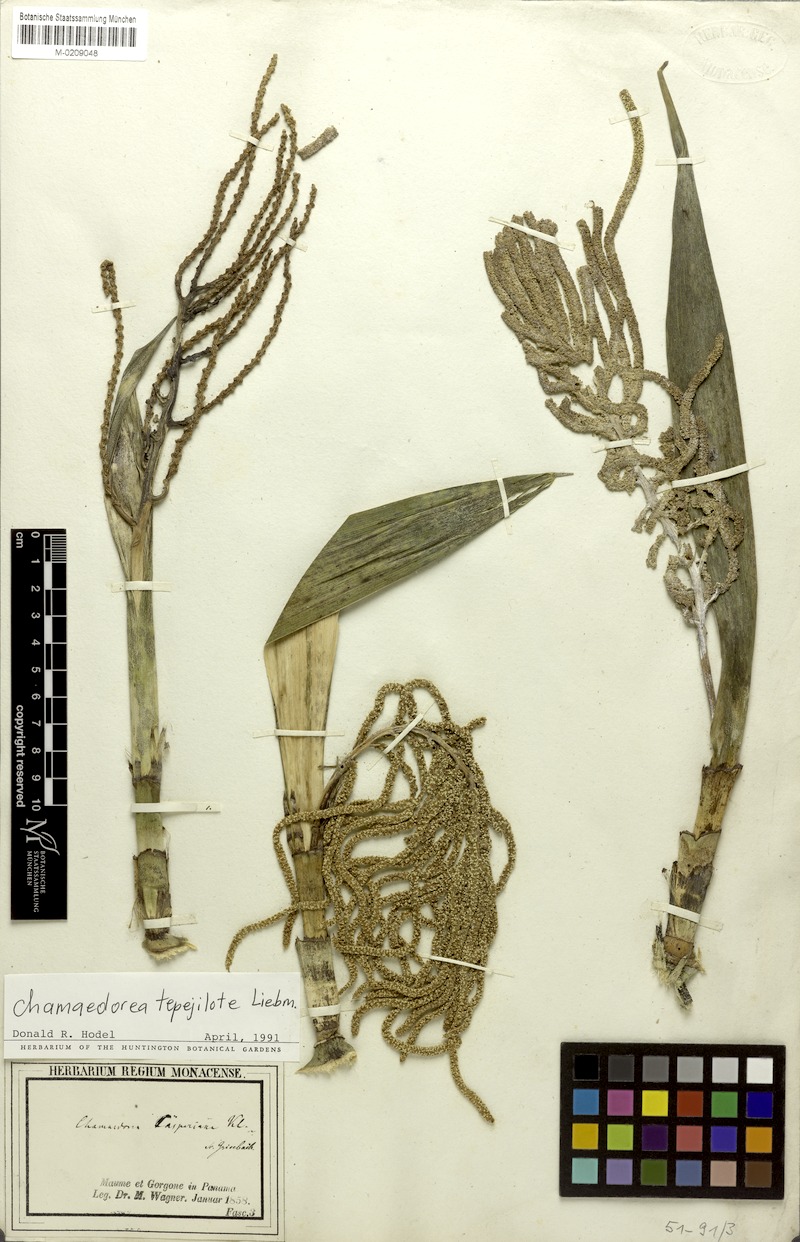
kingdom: Plantae
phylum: Tracheophyta
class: Liliopsida
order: Arecales
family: Arecaceae
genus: Chamaedorea
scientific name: Chamaedorea tepejilote
